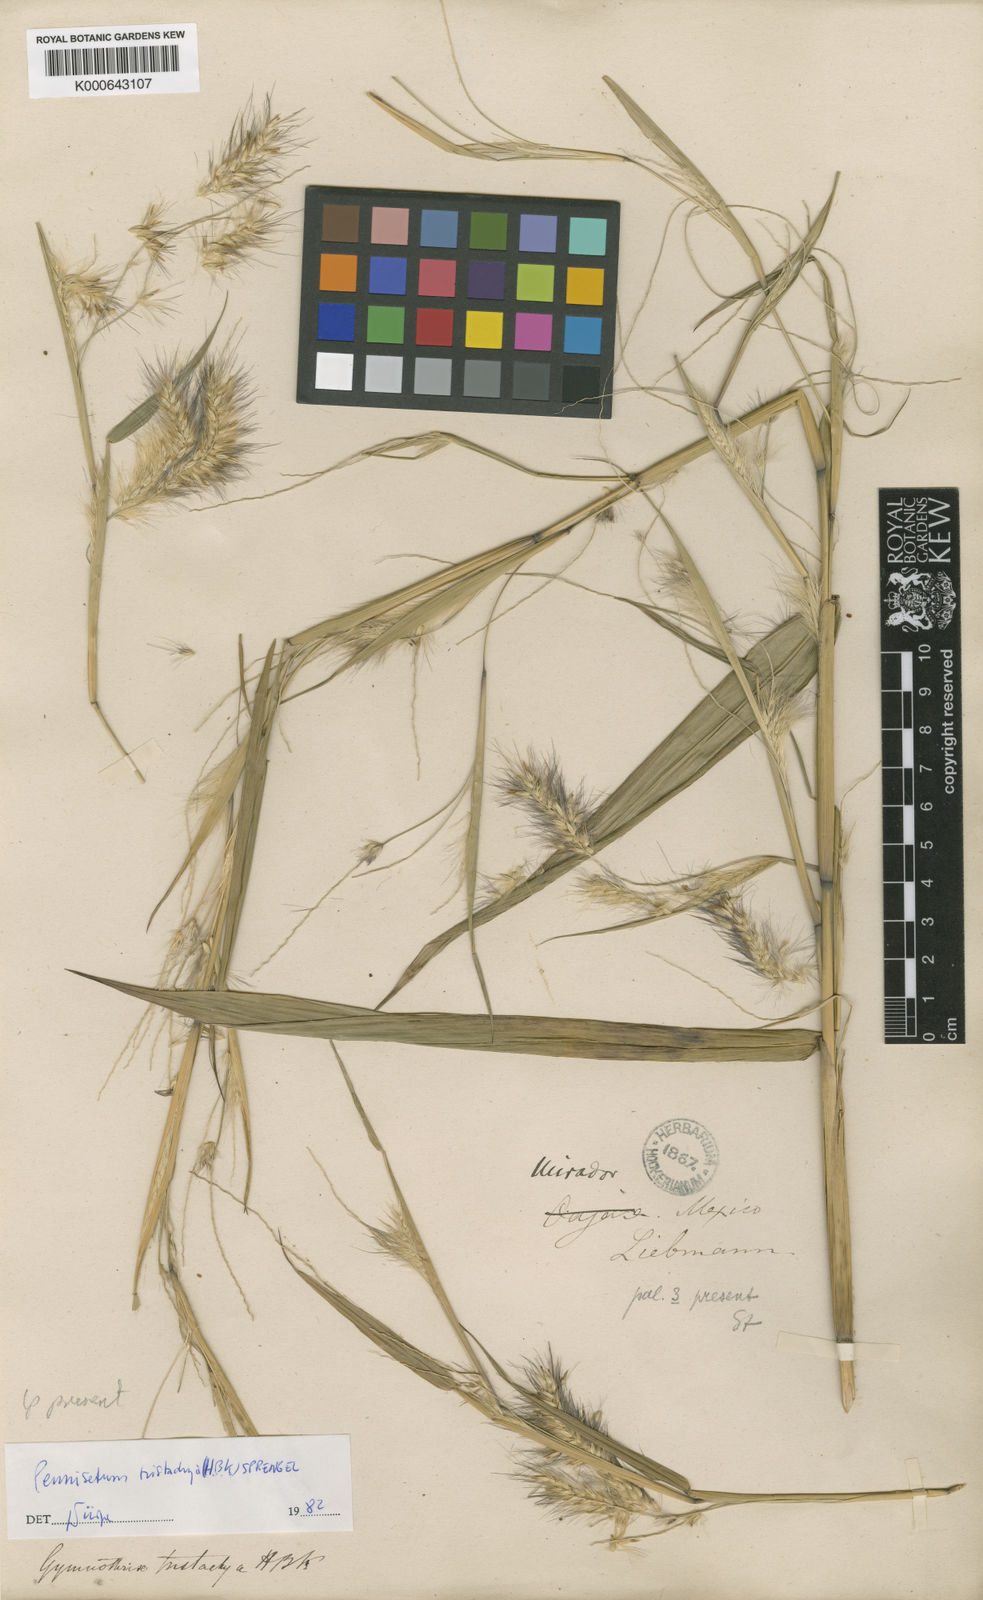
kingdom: Plantae
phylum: Tracheophyta
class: Liliopsida
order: Poales
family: Poaceae
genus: Cenchrus
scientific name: Cenchrus Pennisetum spec
